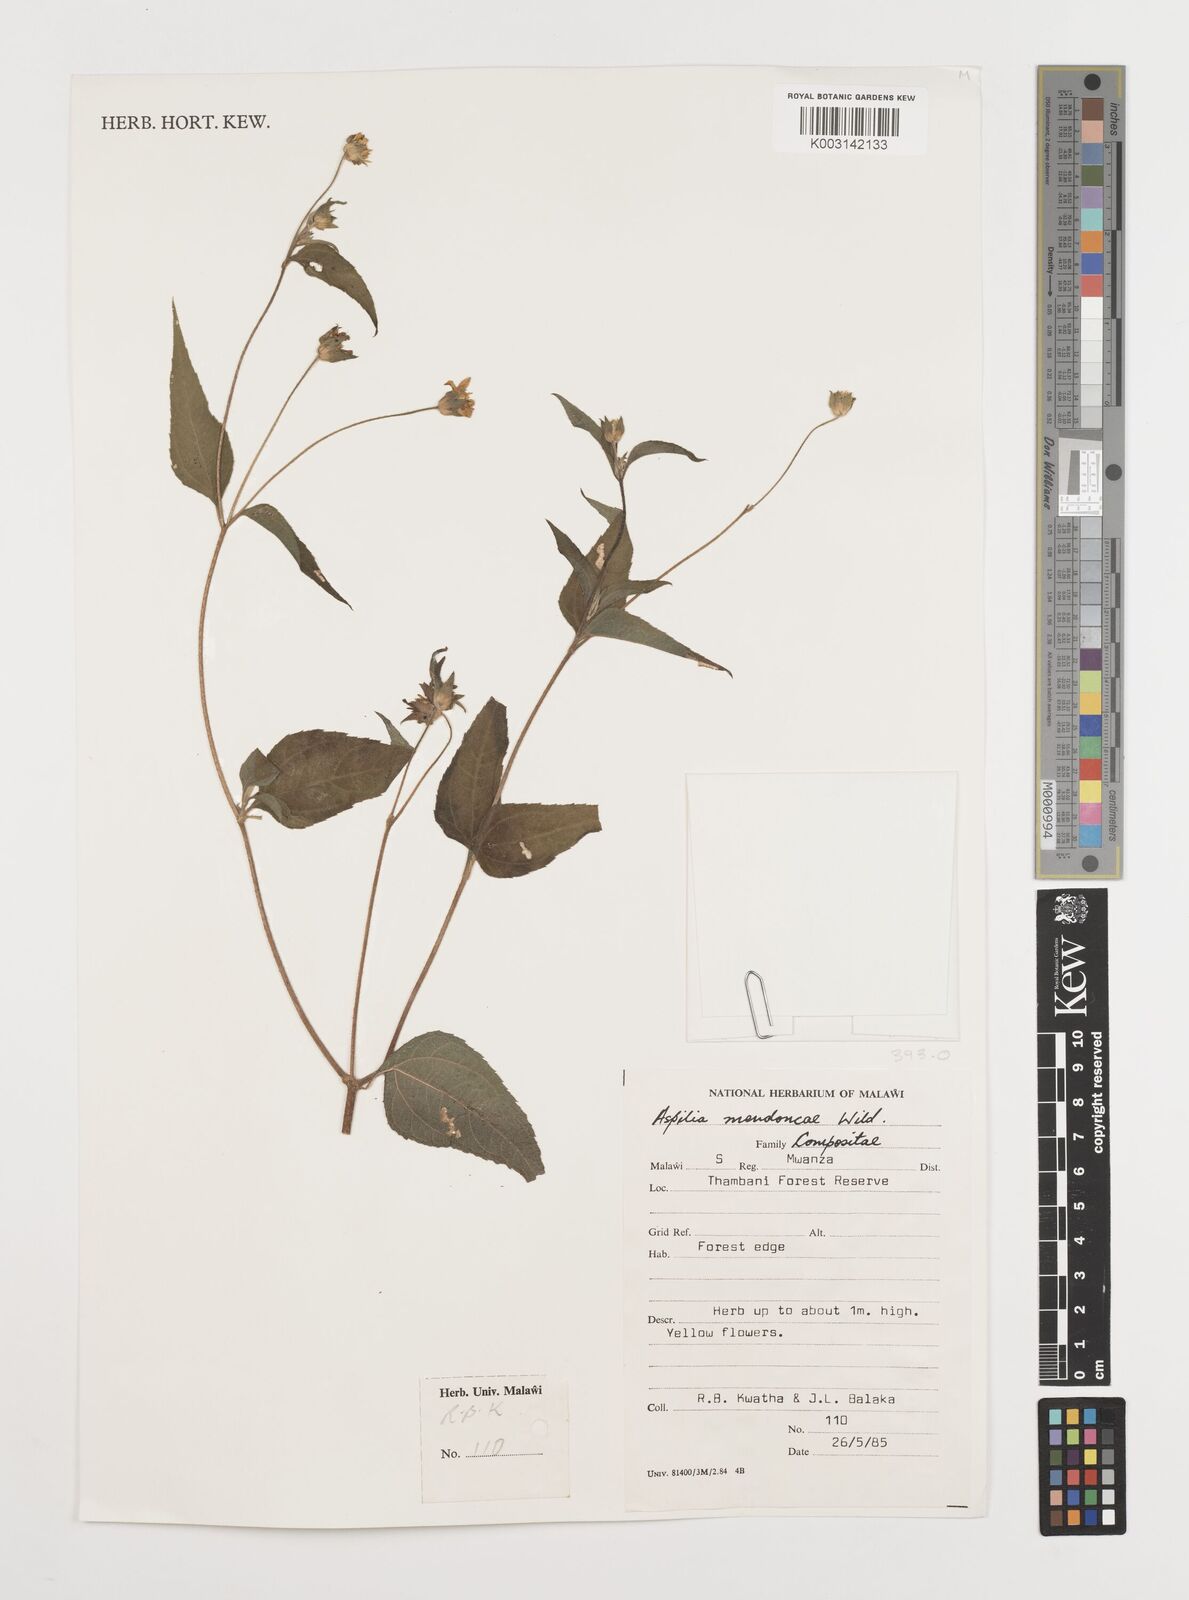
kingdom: Plantae
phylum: Tracheophyta
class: Magnoliopsida
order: Asterales
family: Asteraceae
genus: Aspilia
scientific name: Aspilia mendoncae
